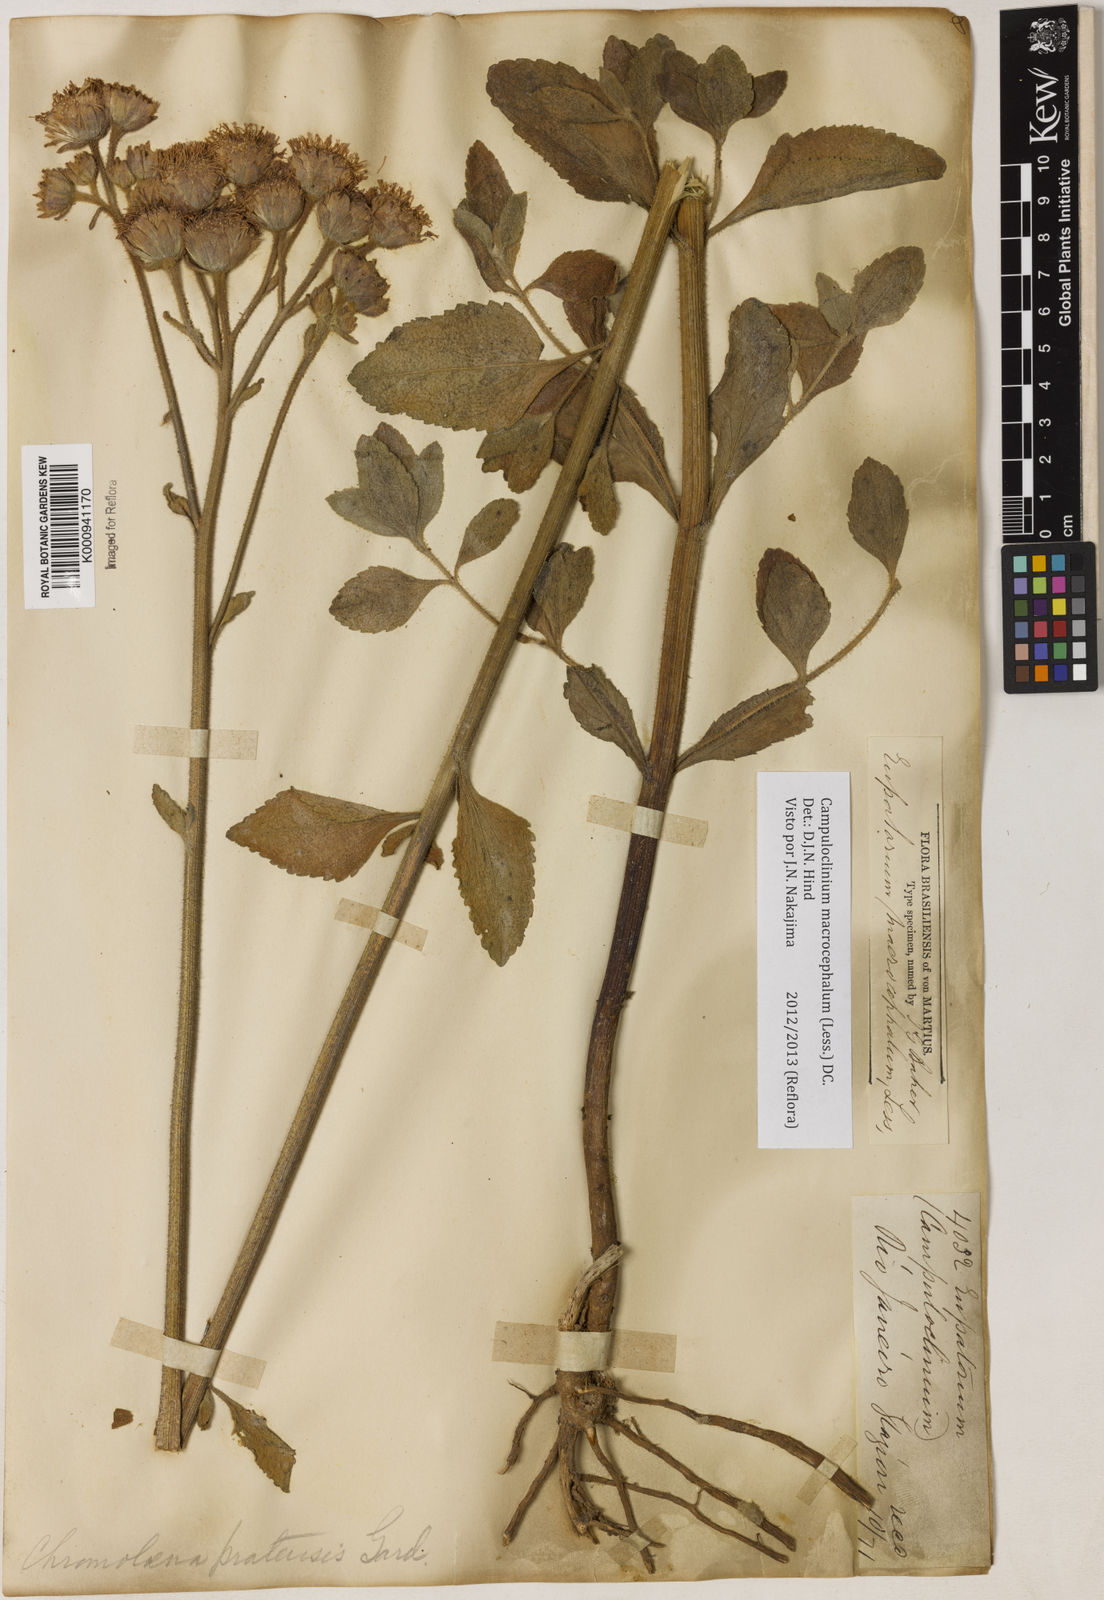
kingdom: Plantae
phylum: Tracheophyta
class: Magnoliopsida
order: Asterales
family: Asteraceae
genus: Campuloclinium
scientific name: Campuloclinium macrocephalum
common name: Pompomweed
